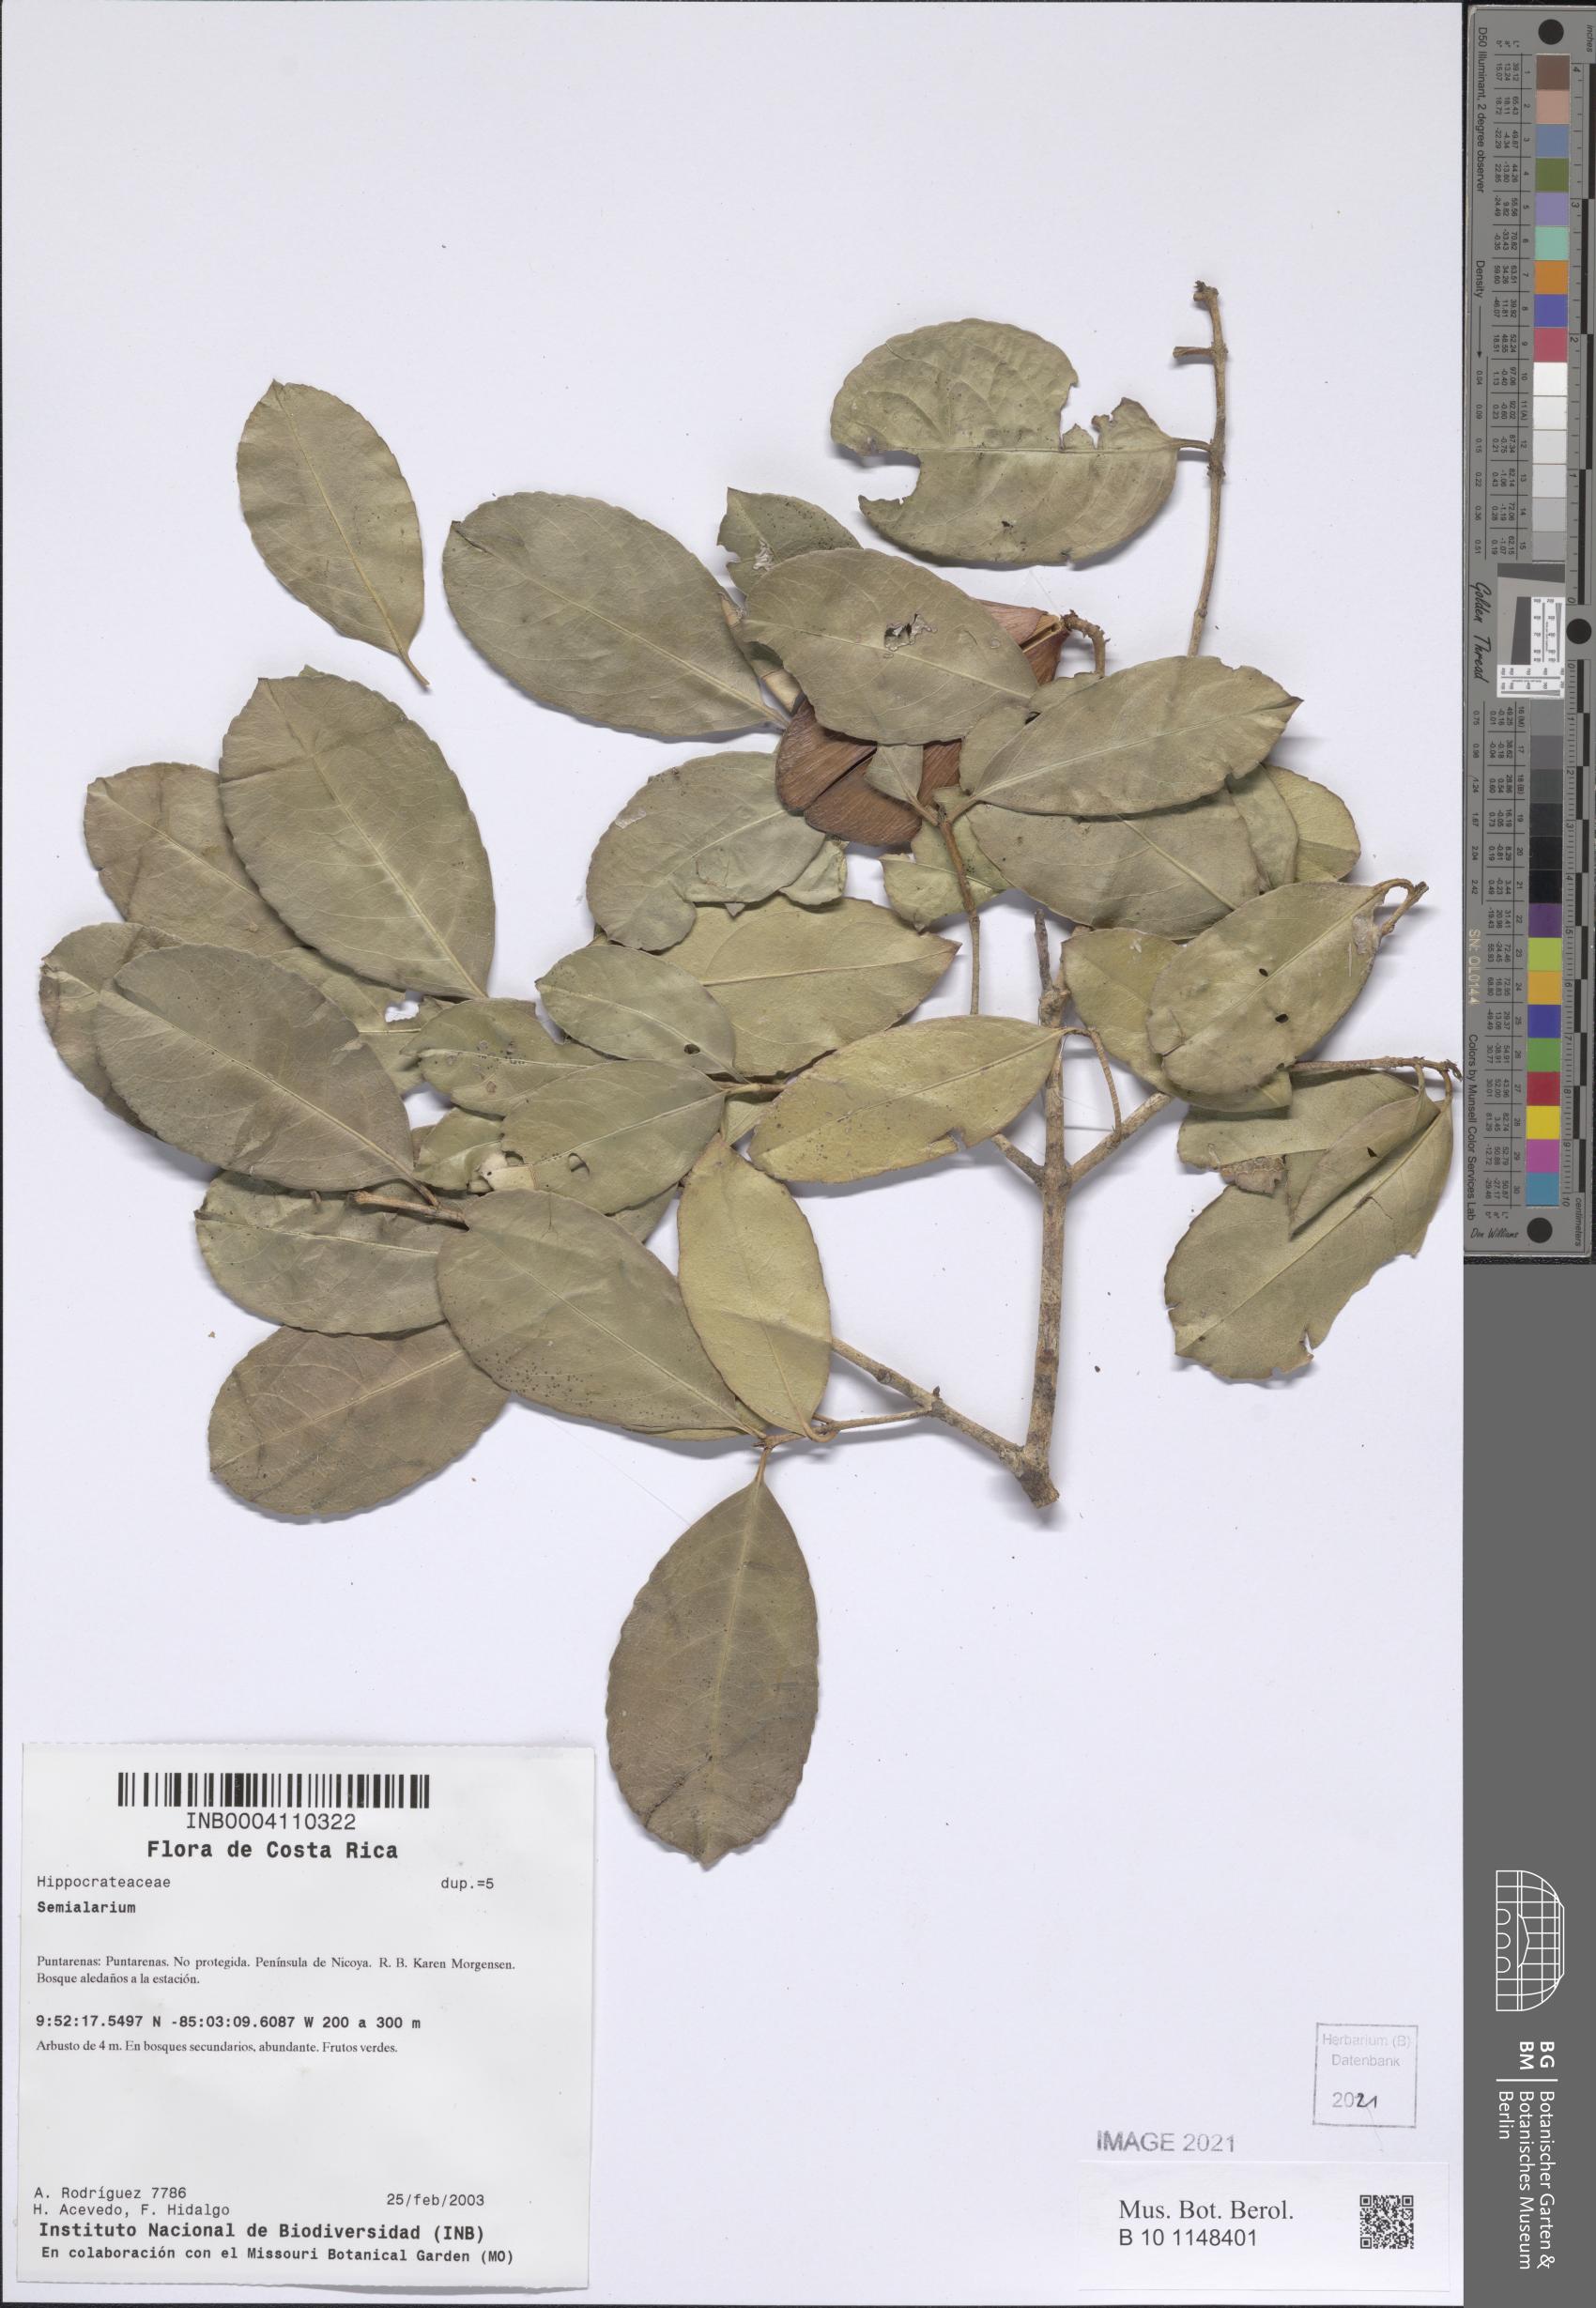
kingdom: Plantae
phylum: Tracheophyta
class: Magnoliopsida
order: Celastrales
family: Celastraceae
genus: Semialarium
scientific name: Semialarium
